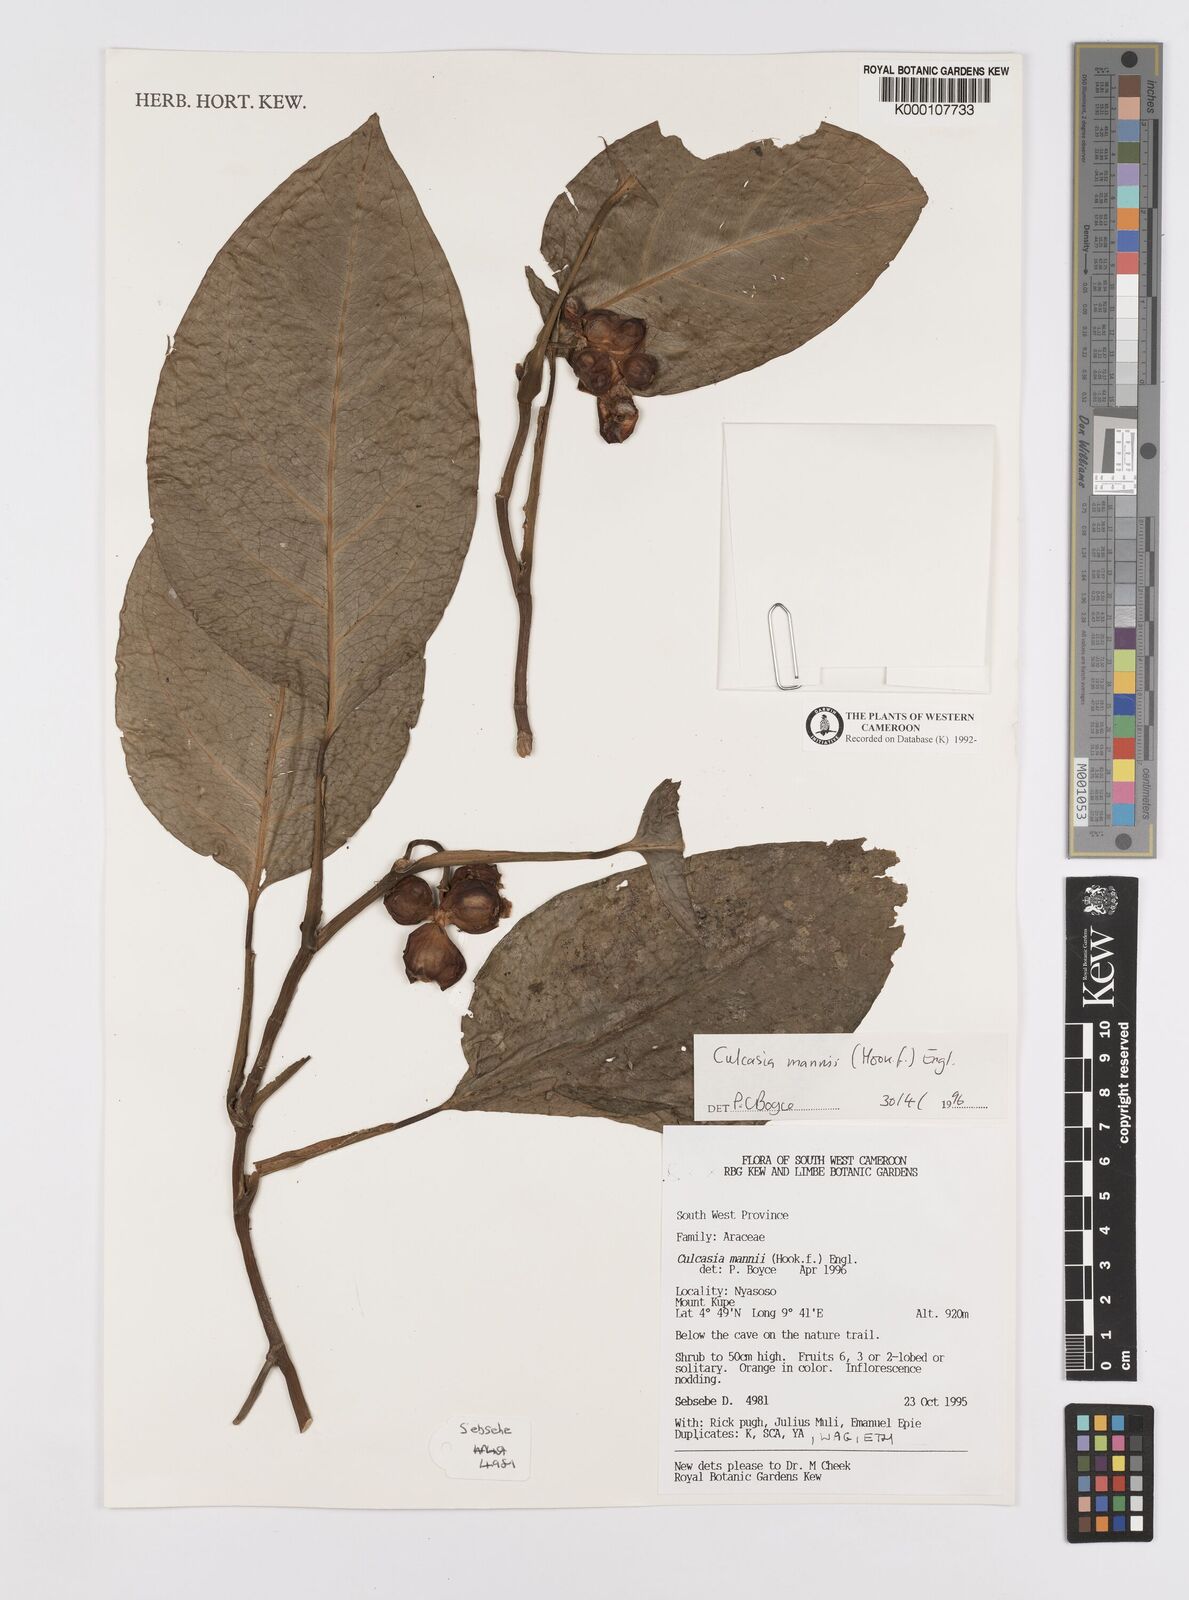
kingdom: Plantae
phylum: Tracheophyta
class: Liliopsida
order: Alismatales
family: Araceae
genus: Culcasia
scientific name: Culcasia mannii
